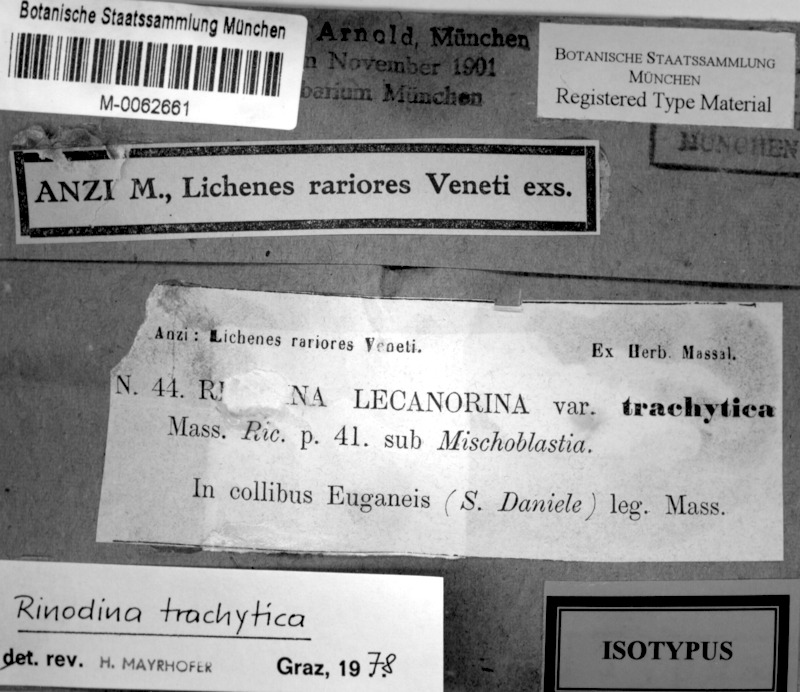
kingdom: Fungi
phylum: Ascomycota
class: Lecanoromycetes
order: Caliciales
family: Physciaceae
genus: Rinodina
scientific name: Rinodina lecanorina
